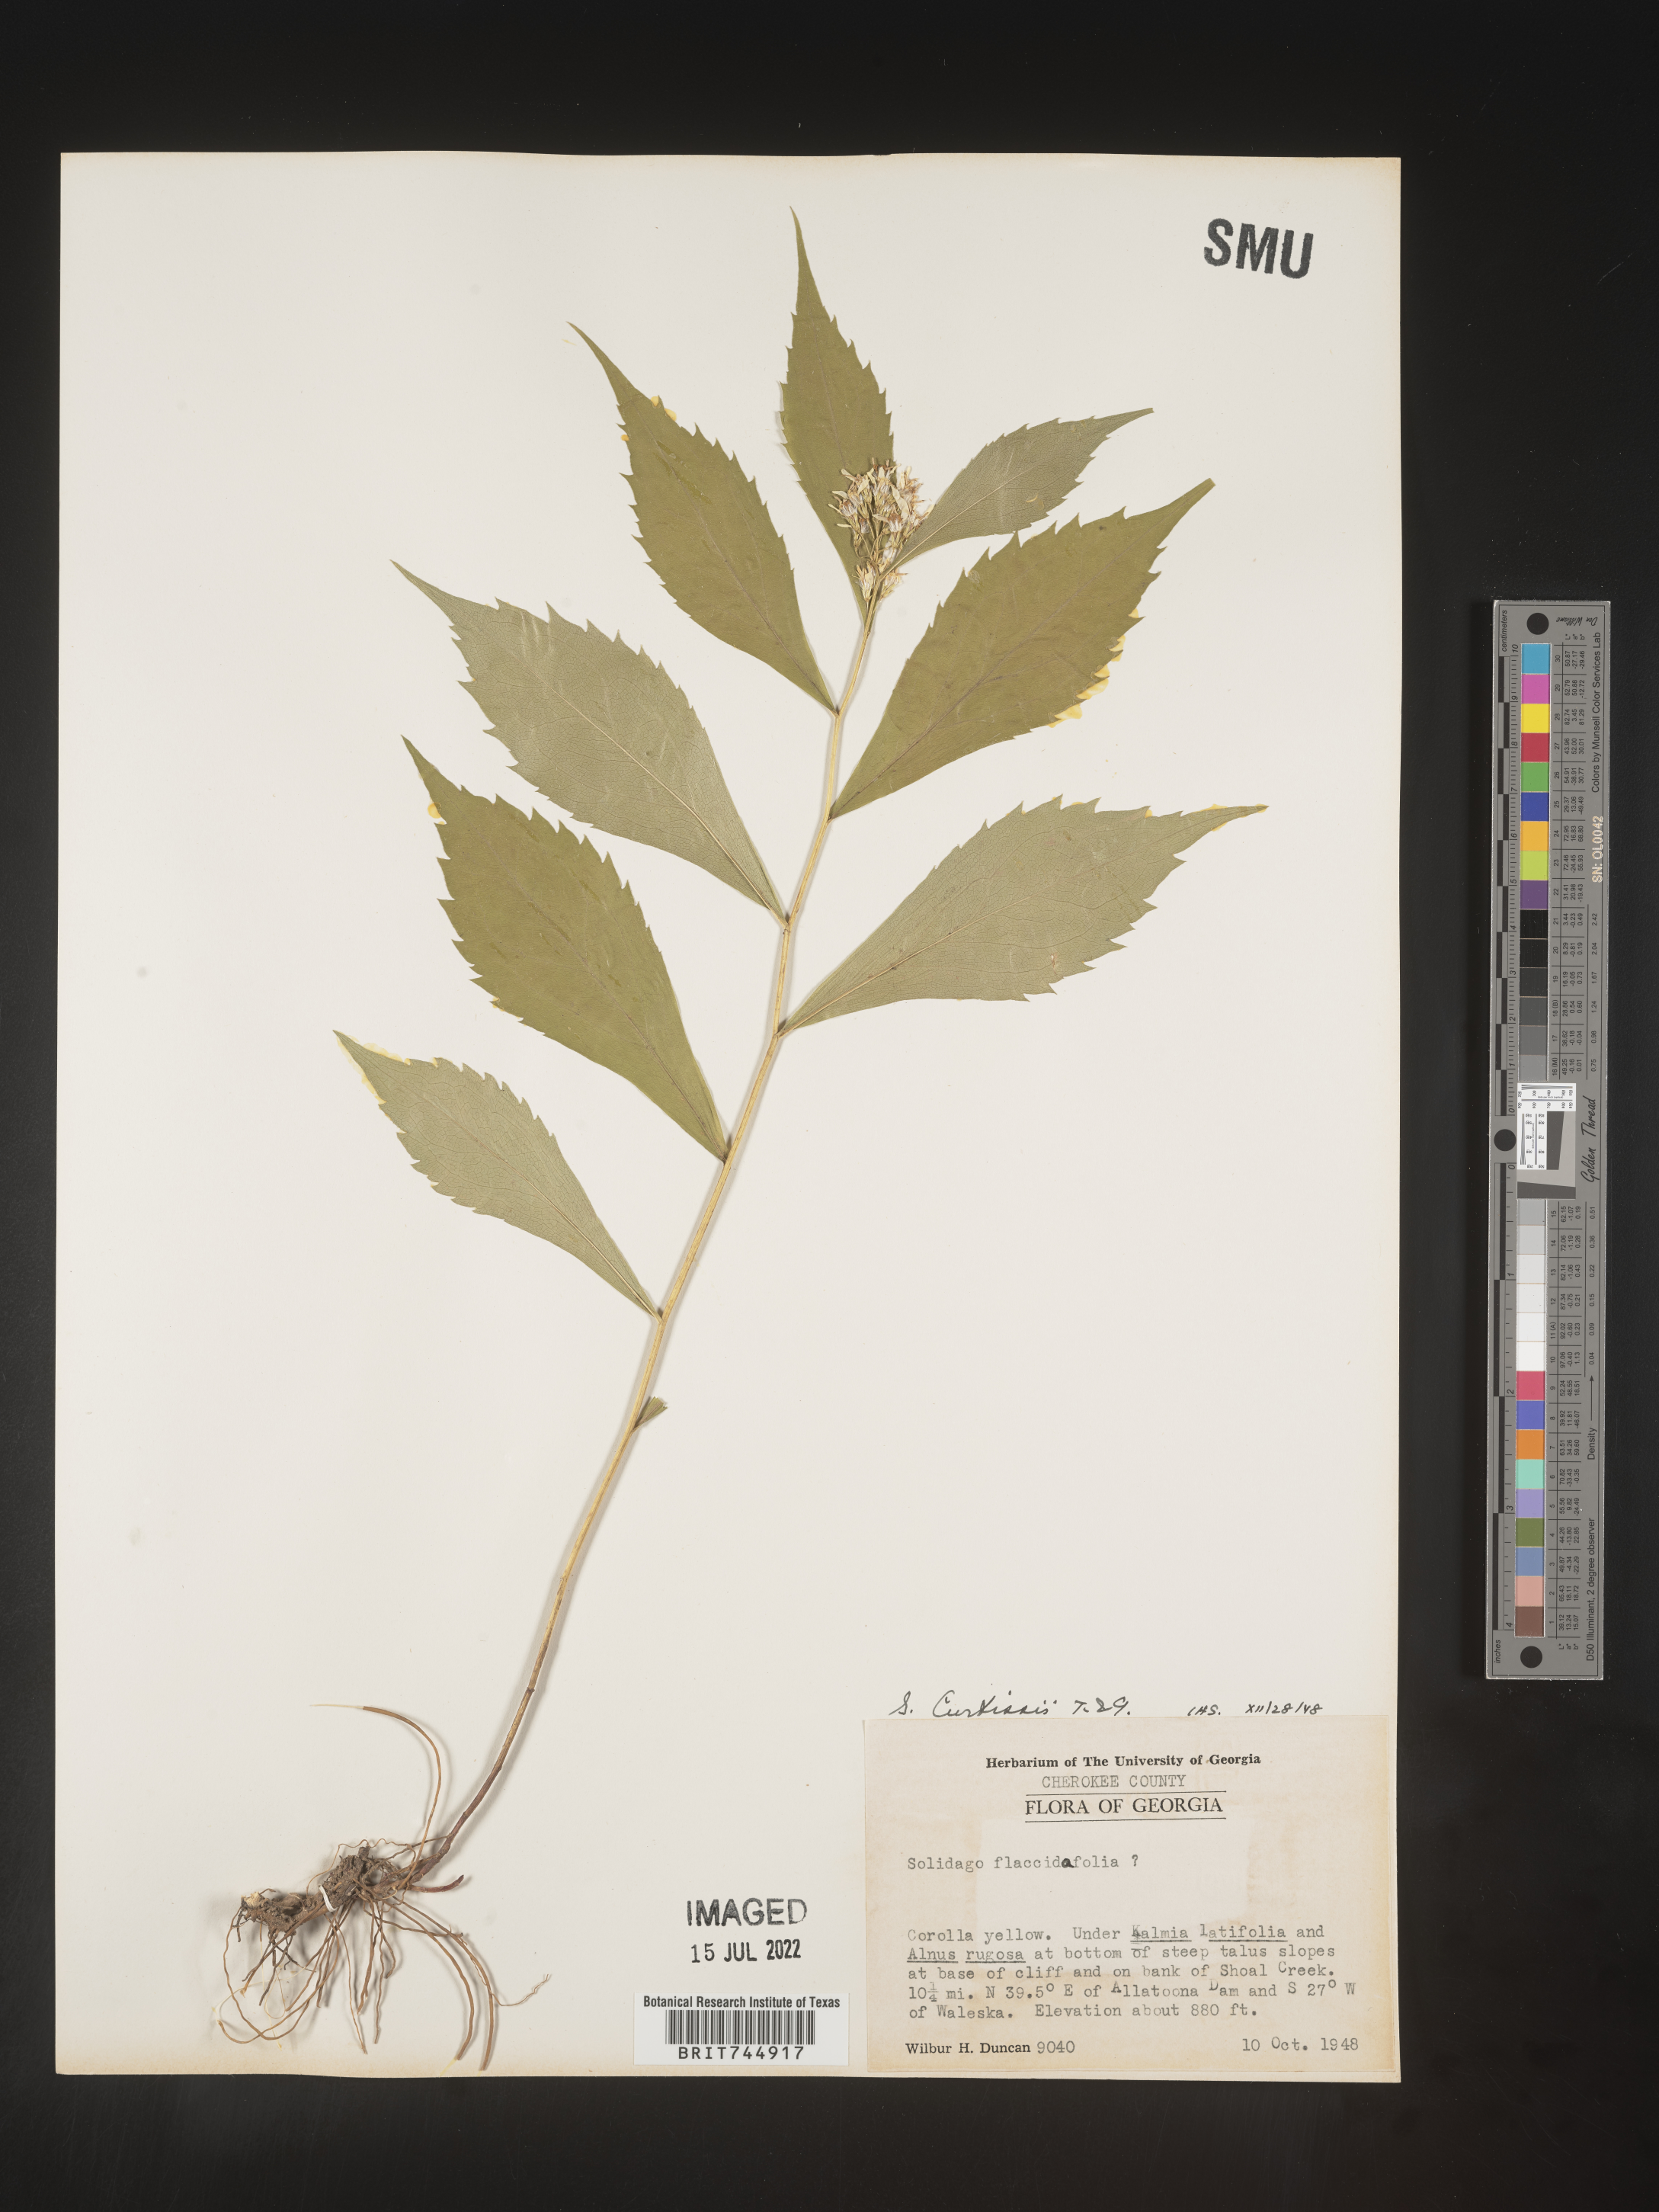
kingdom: Plantae
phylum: Tracheophyta
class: Magnoliopsida
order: Asterales
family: Asteraceae
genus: Solidago
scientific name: Solidago curtisii
